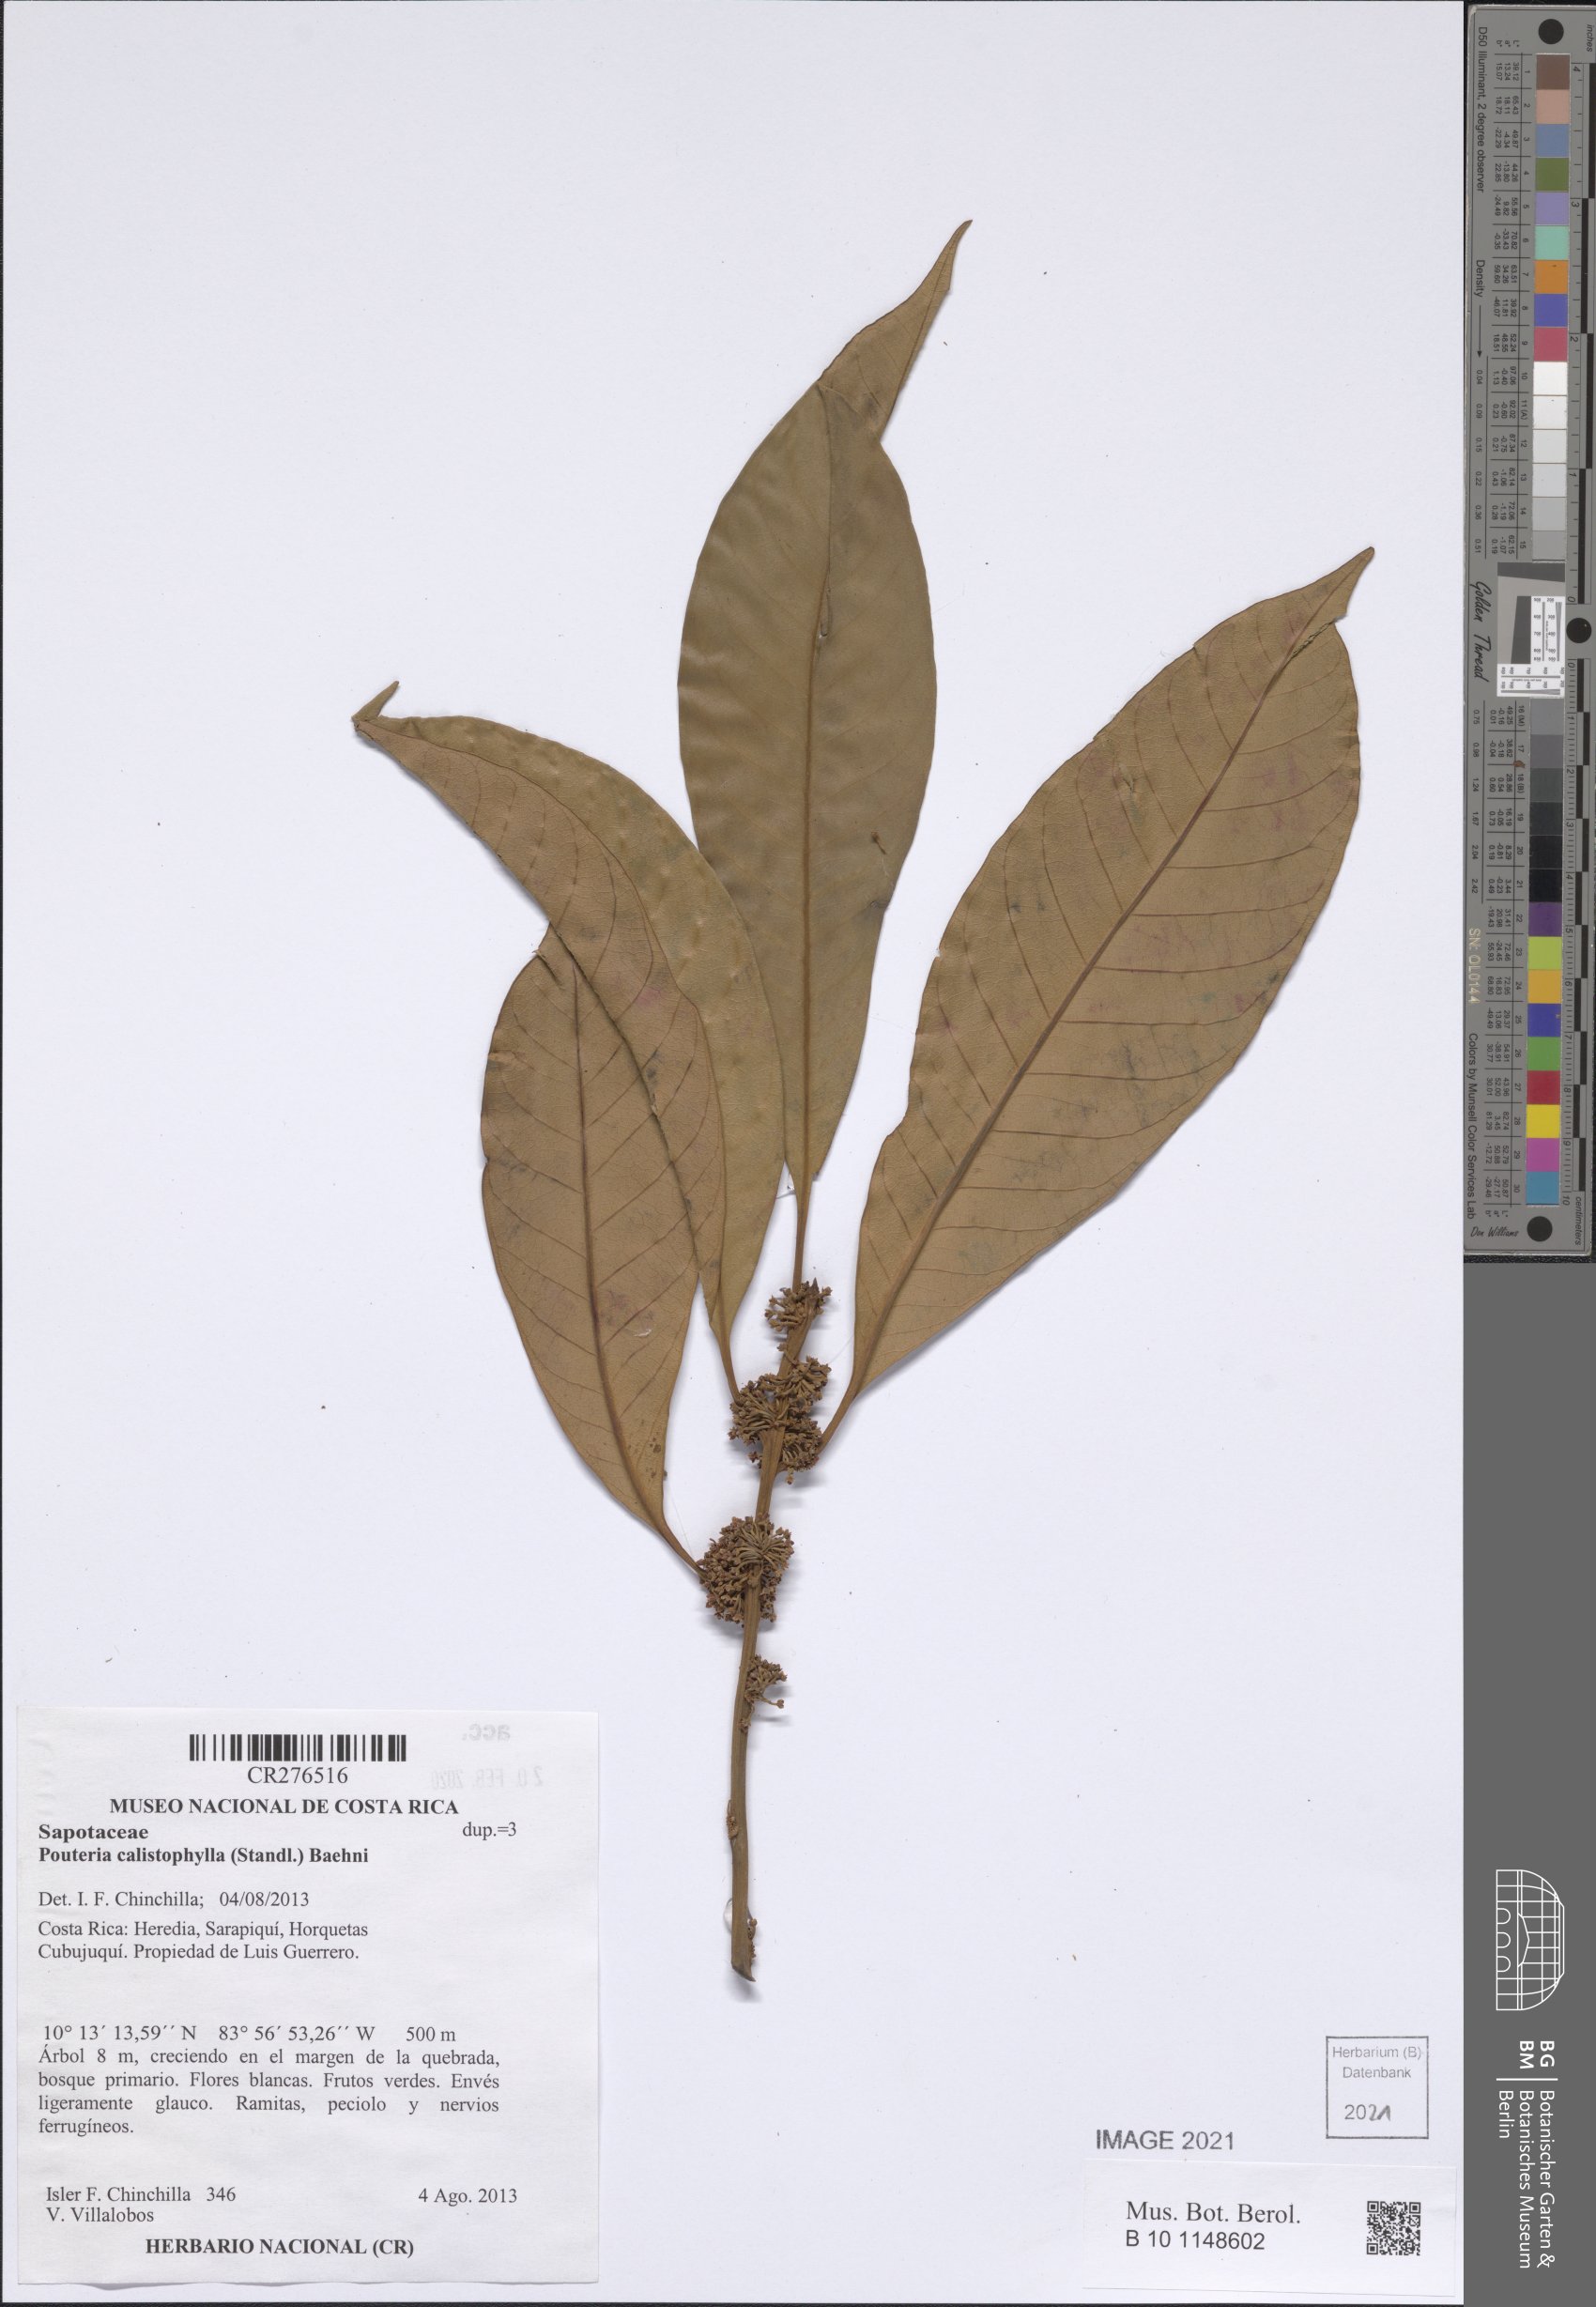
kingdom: Plantae
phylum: Tracheophyta
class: Magnoliopsida
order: Ericales
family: Sapotaceae
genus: Pouteria
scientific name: Pouteria
